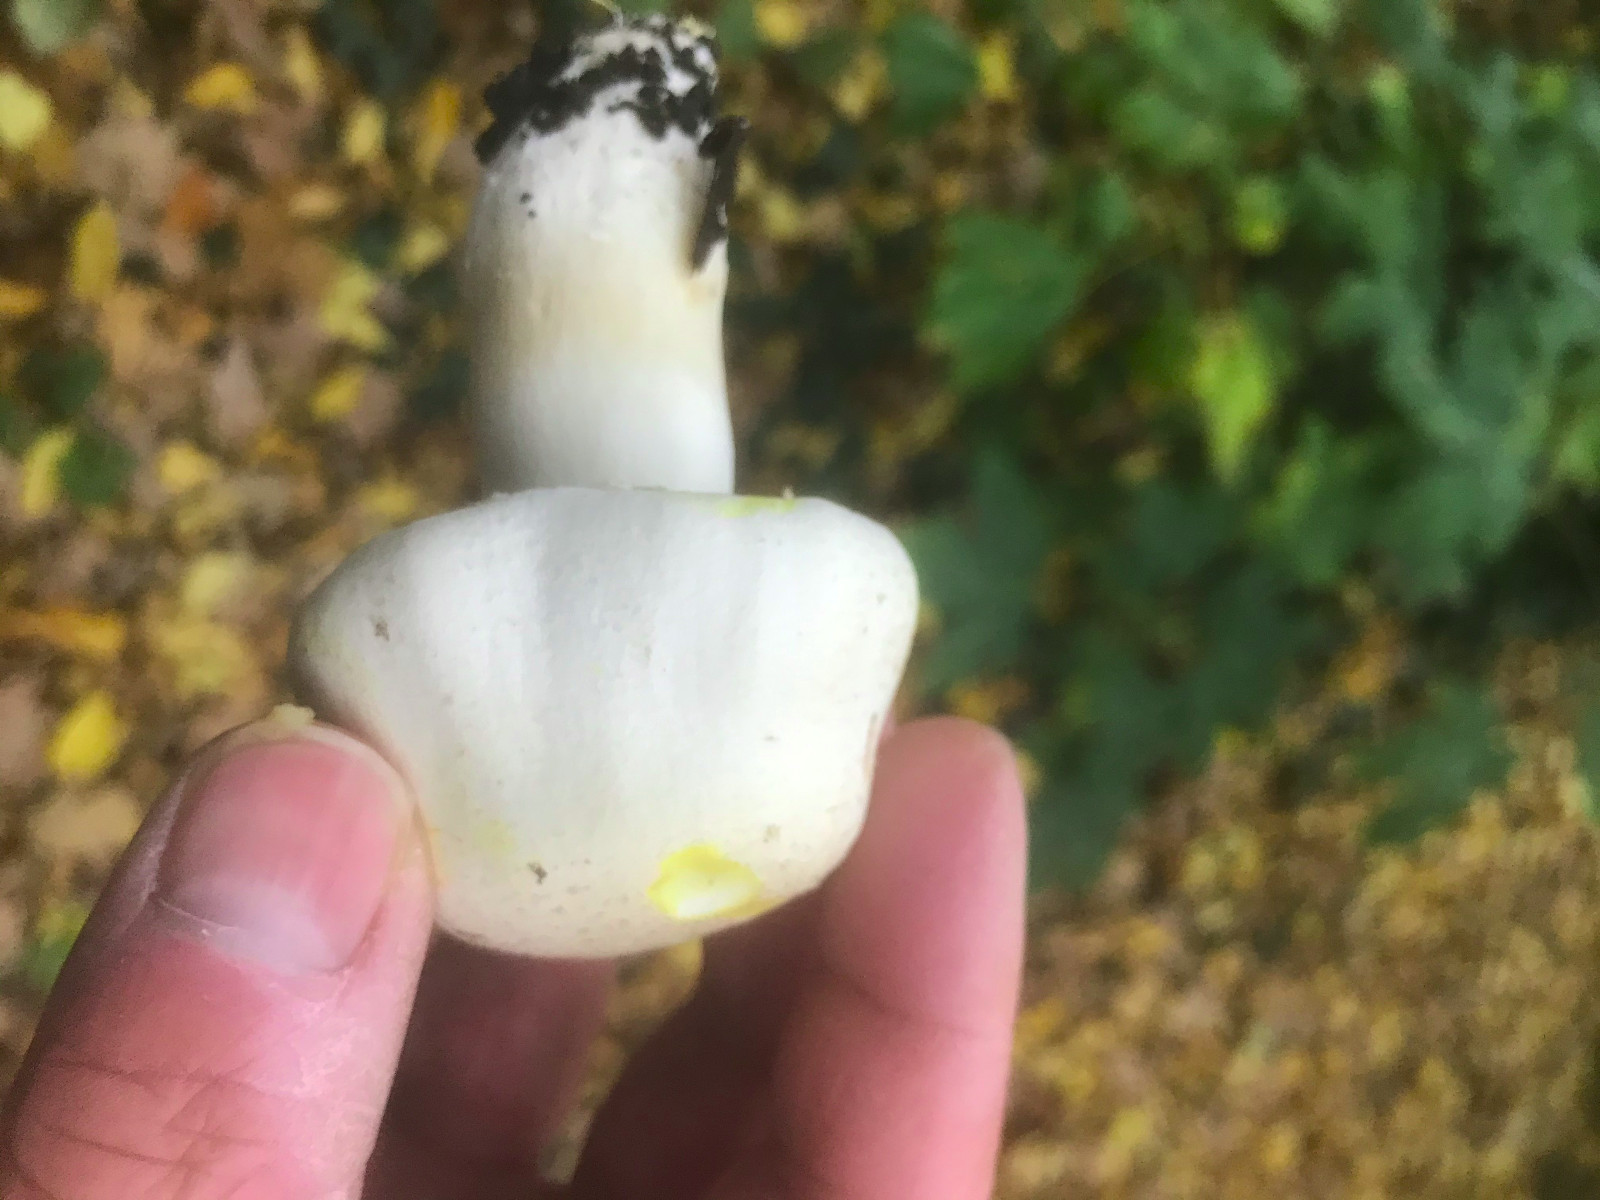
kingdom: Fungi
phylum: Basidiomycota
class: Agaricomycetes
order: Agaricales
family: Agaricaceae
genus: Agaricus
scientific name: Agaricus xanthodermus
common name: karbol-champignon
